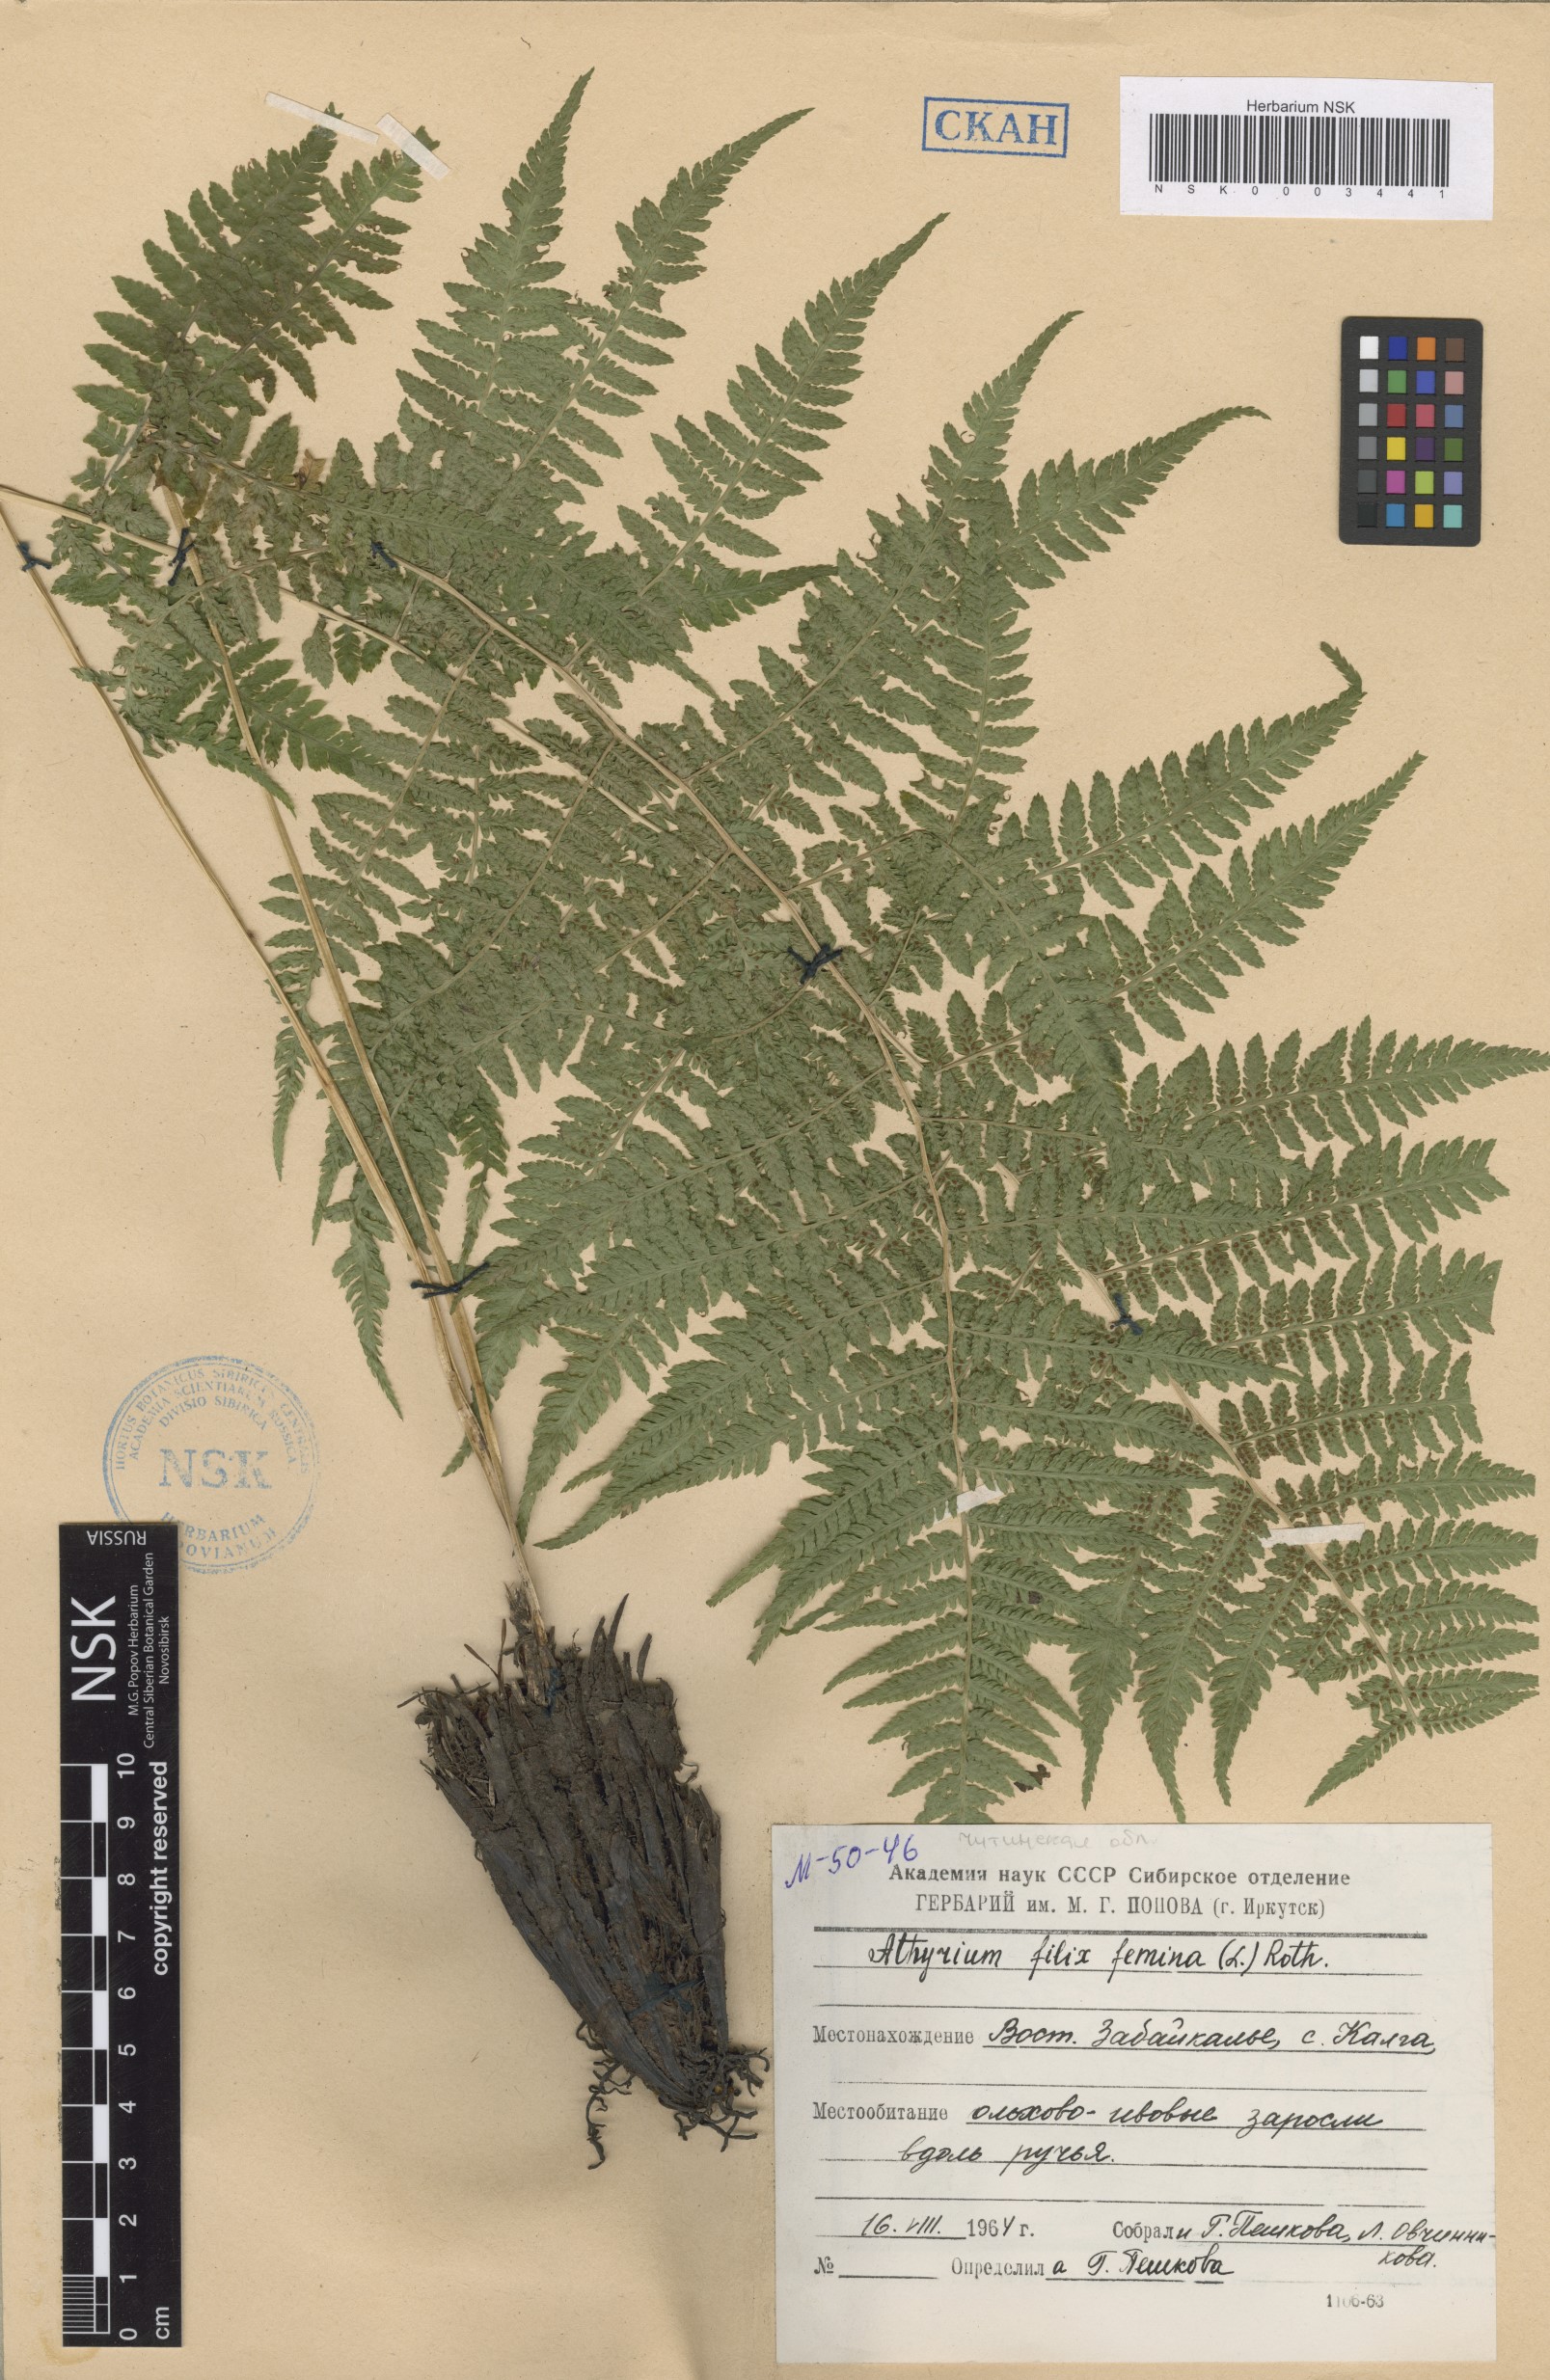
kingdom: Plantae
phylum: Tracheophyta
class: Polypodiopsida
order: Polypodiales
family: Athyriaceae
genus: Athyrium
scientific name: Athyrium filix-femina
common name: Lady fern
